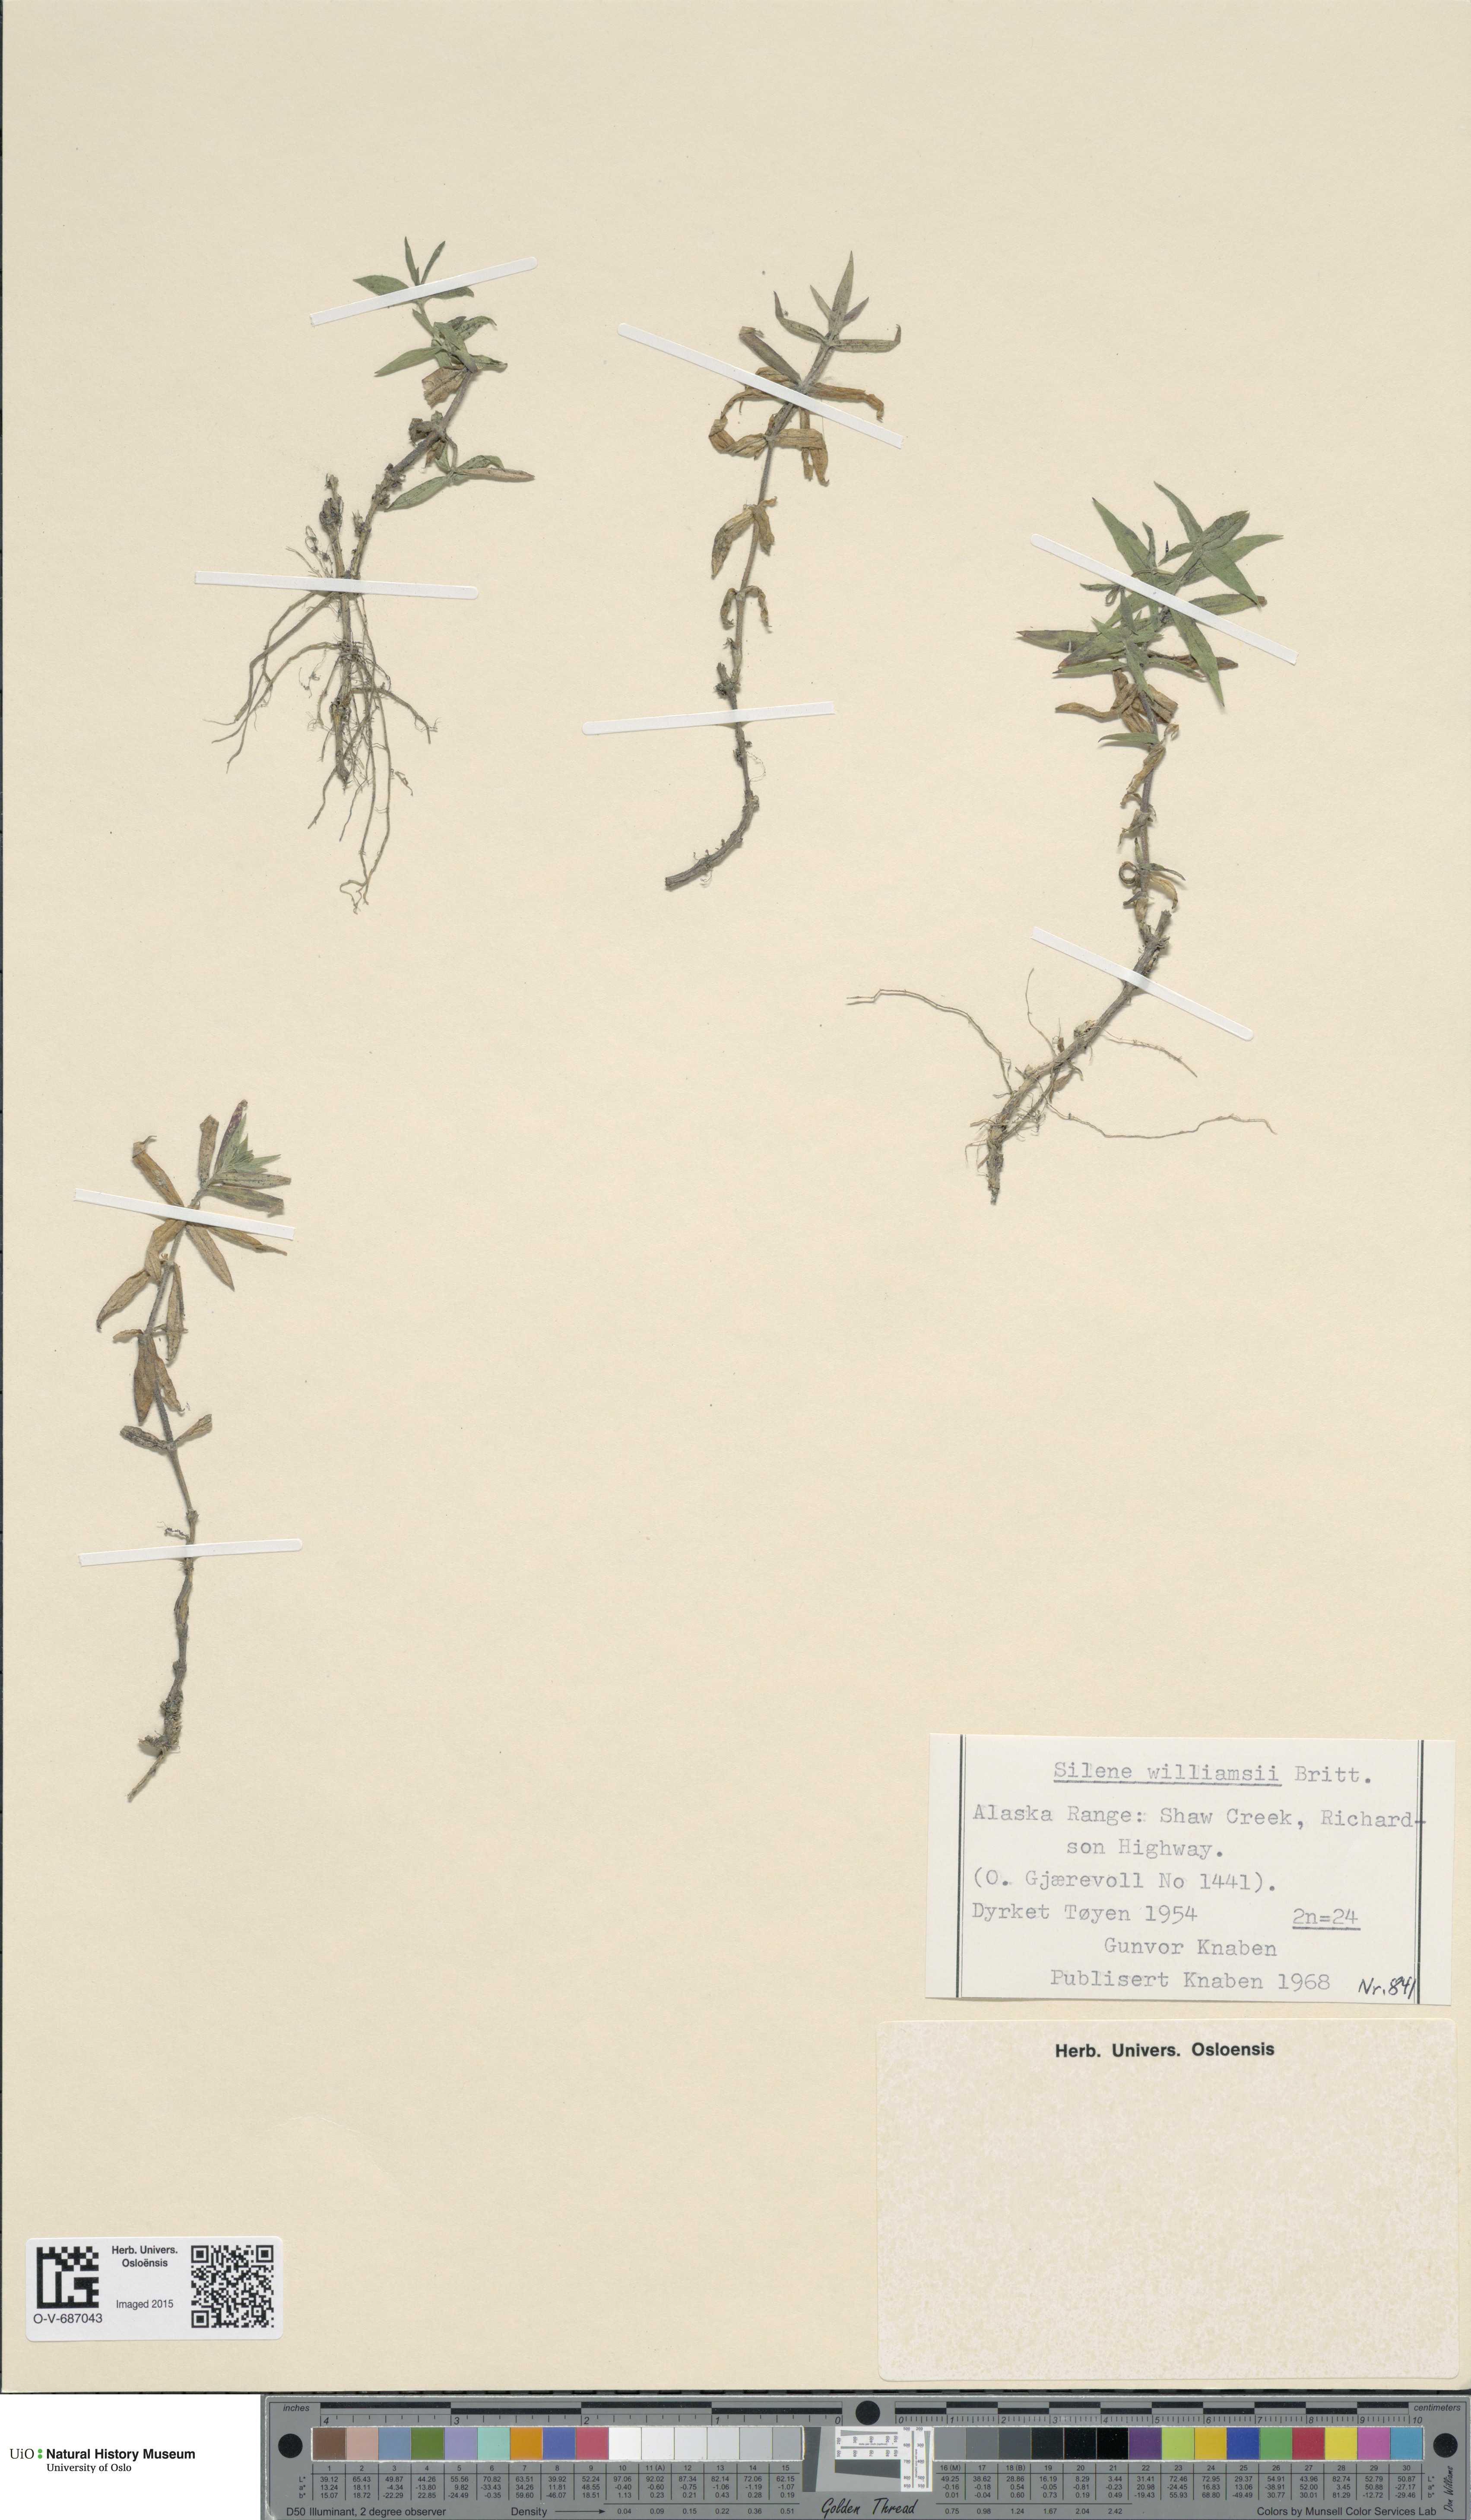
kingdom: Plantae
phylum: Tracheophyta
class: Magnoliopsida
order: Caryophyllales
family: Caryophyllaceae
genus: Silene
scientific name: Silene williamsii
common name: Williams' campion
